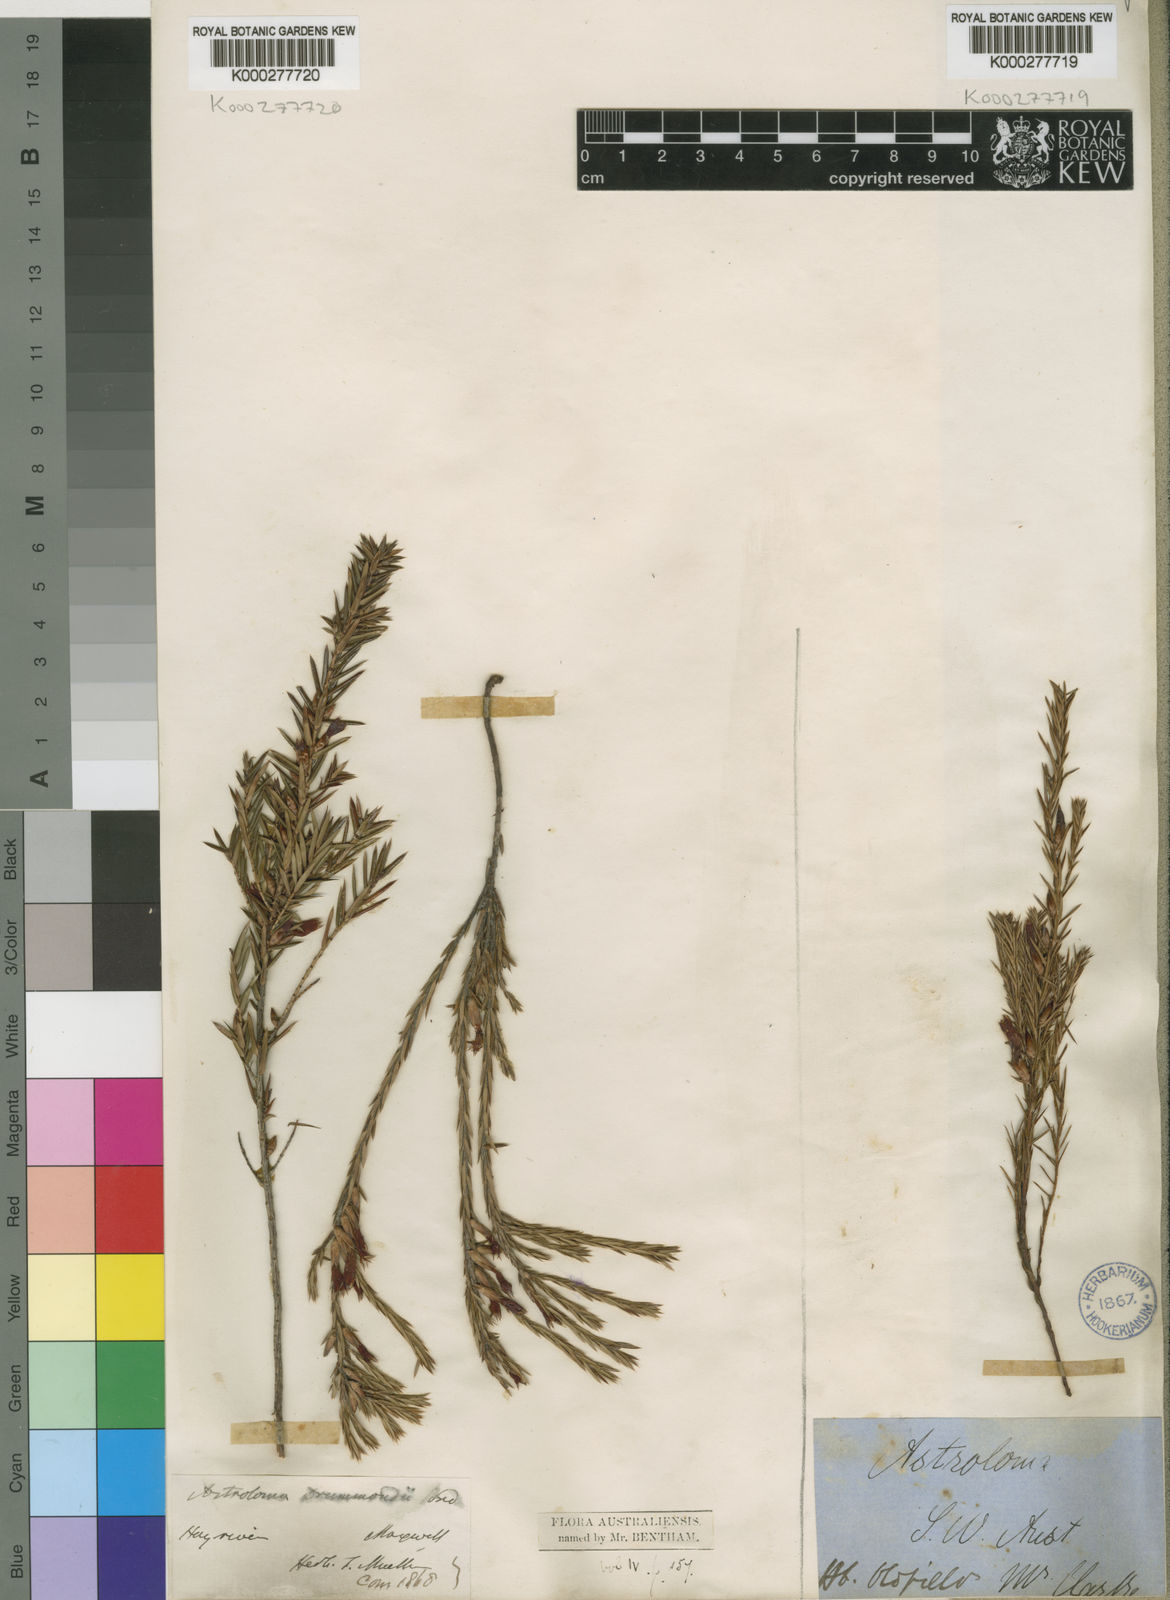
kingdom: Plantae
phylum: Tracheophyta
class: Magnoliopsida
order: Ericales
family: Ericaceae
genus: Styphelia
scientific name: Styphelia epacridis
